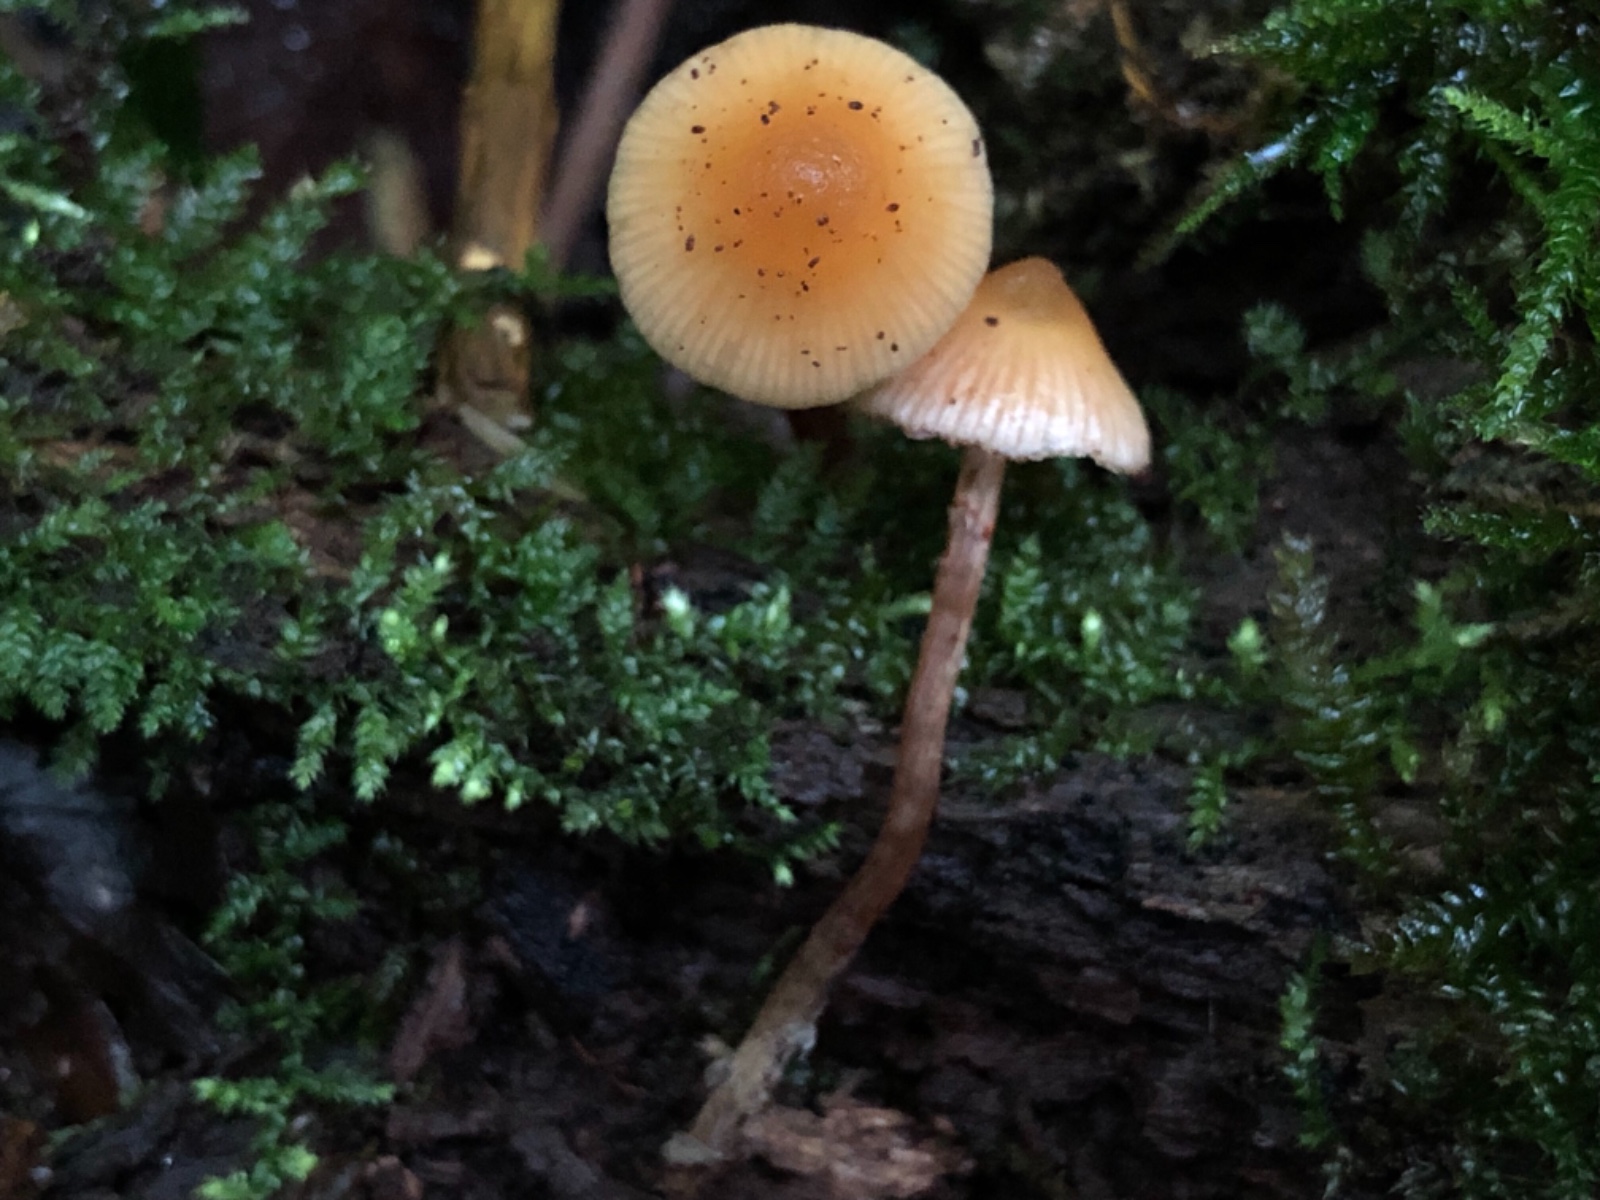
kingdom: Fungi
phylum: Basidiomycota
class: Agaricomycetes
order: Agaricales
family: Hymenogastraceae
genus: Galerina
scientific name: Galerina marginata
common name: randbæltet hjelmhat
